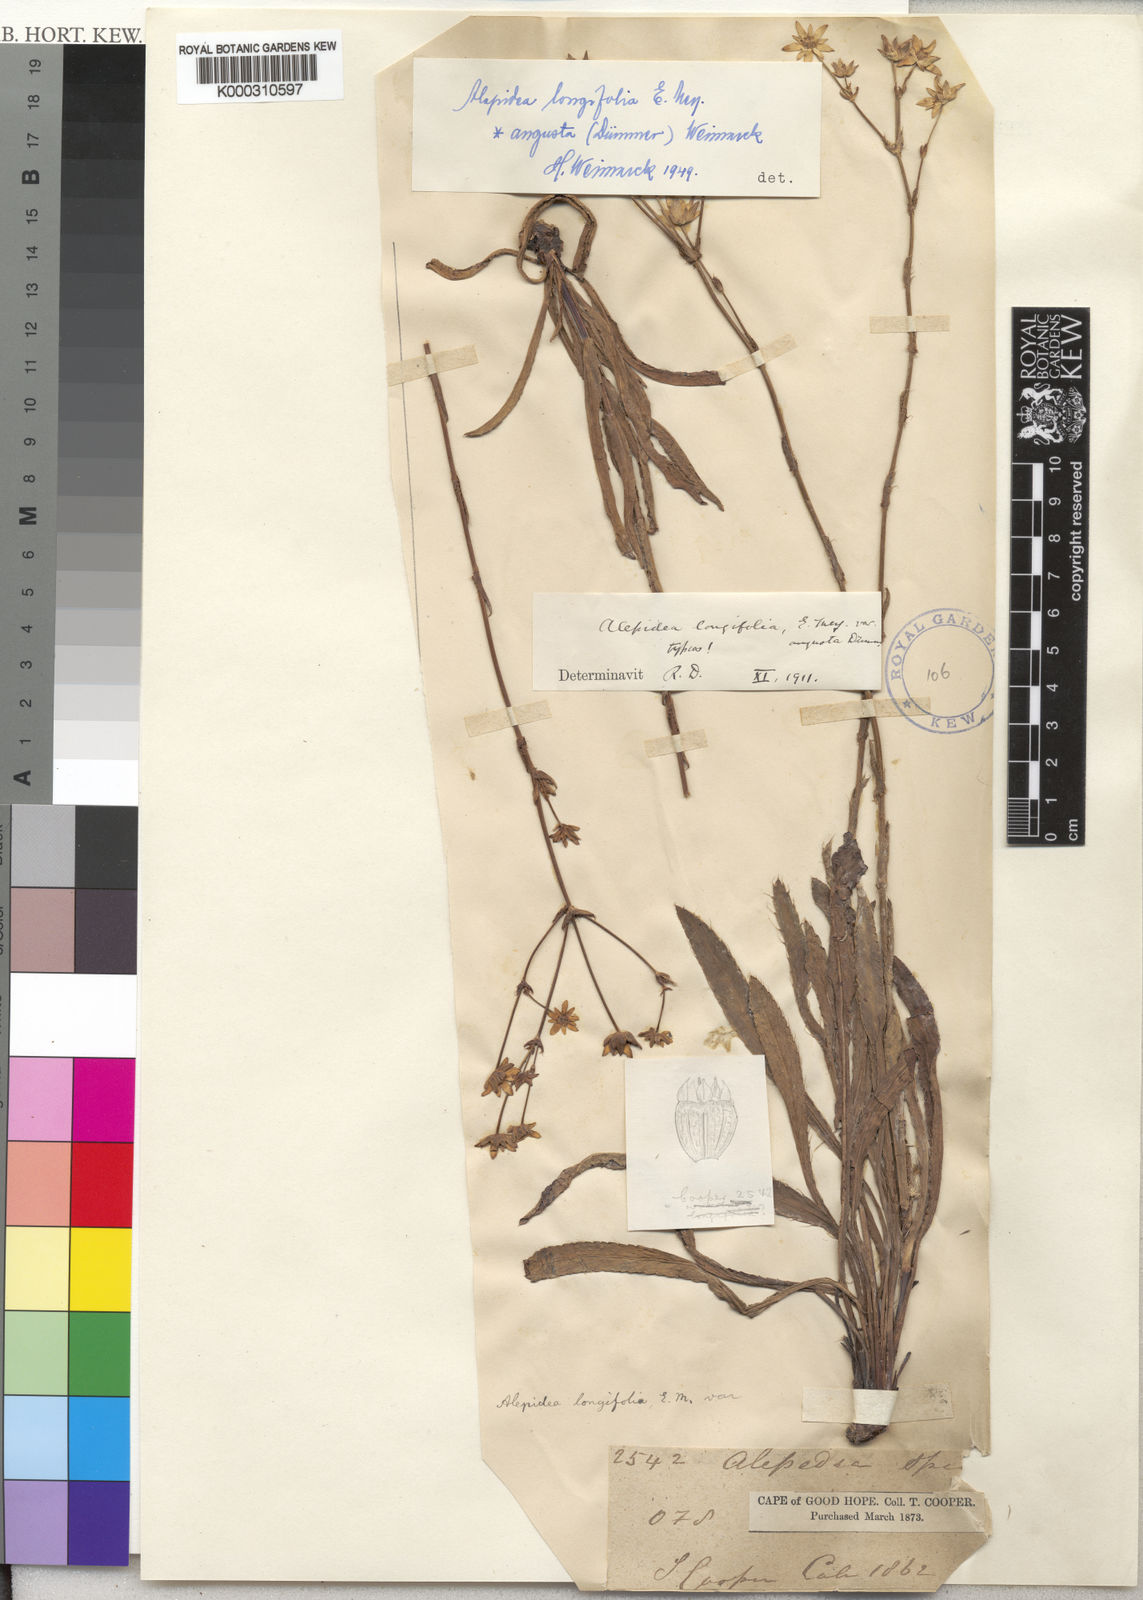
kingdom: Plantae
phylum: Tracheophyta
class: Magnoliopsida
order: Apiales
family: Apiaceae
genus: Alepidea
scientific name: Alepidea
